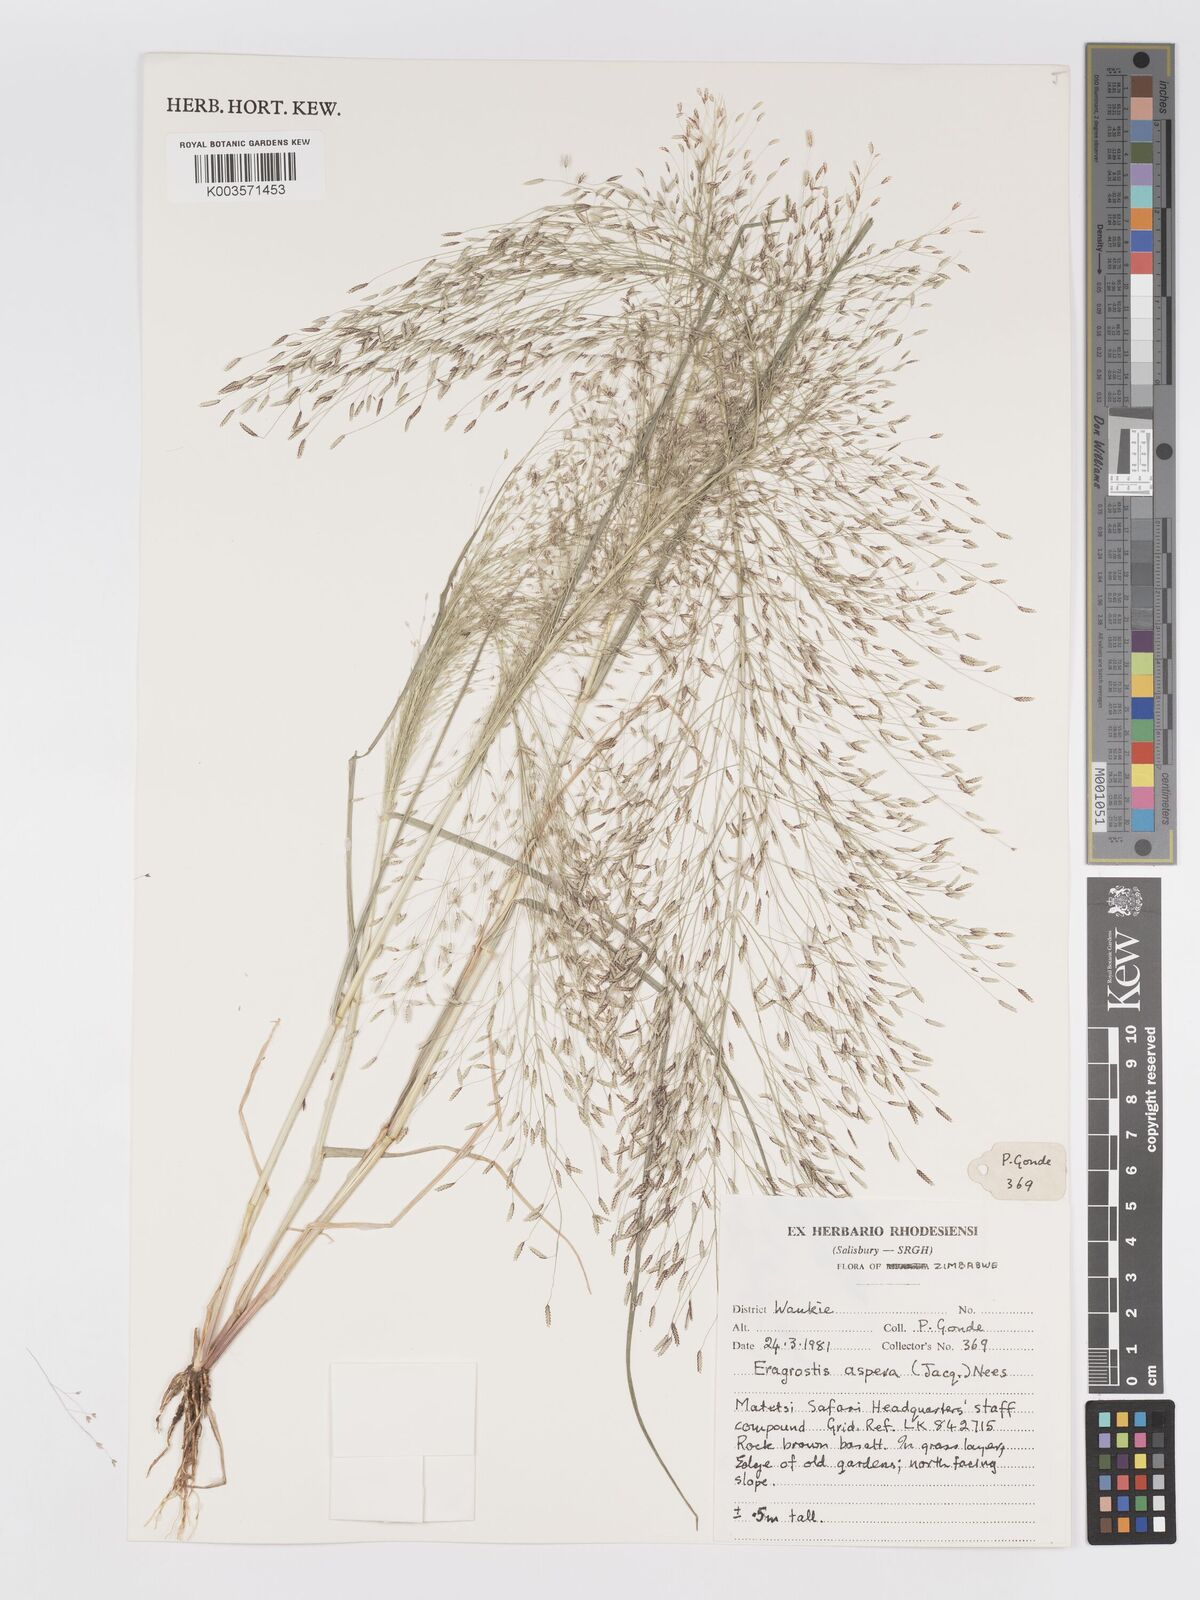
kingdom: Plantae
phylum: Tracheophyta
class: Liliopsida
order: Poales
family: Poaceae
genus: Eragrostis
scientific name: Eragrostis aspera
